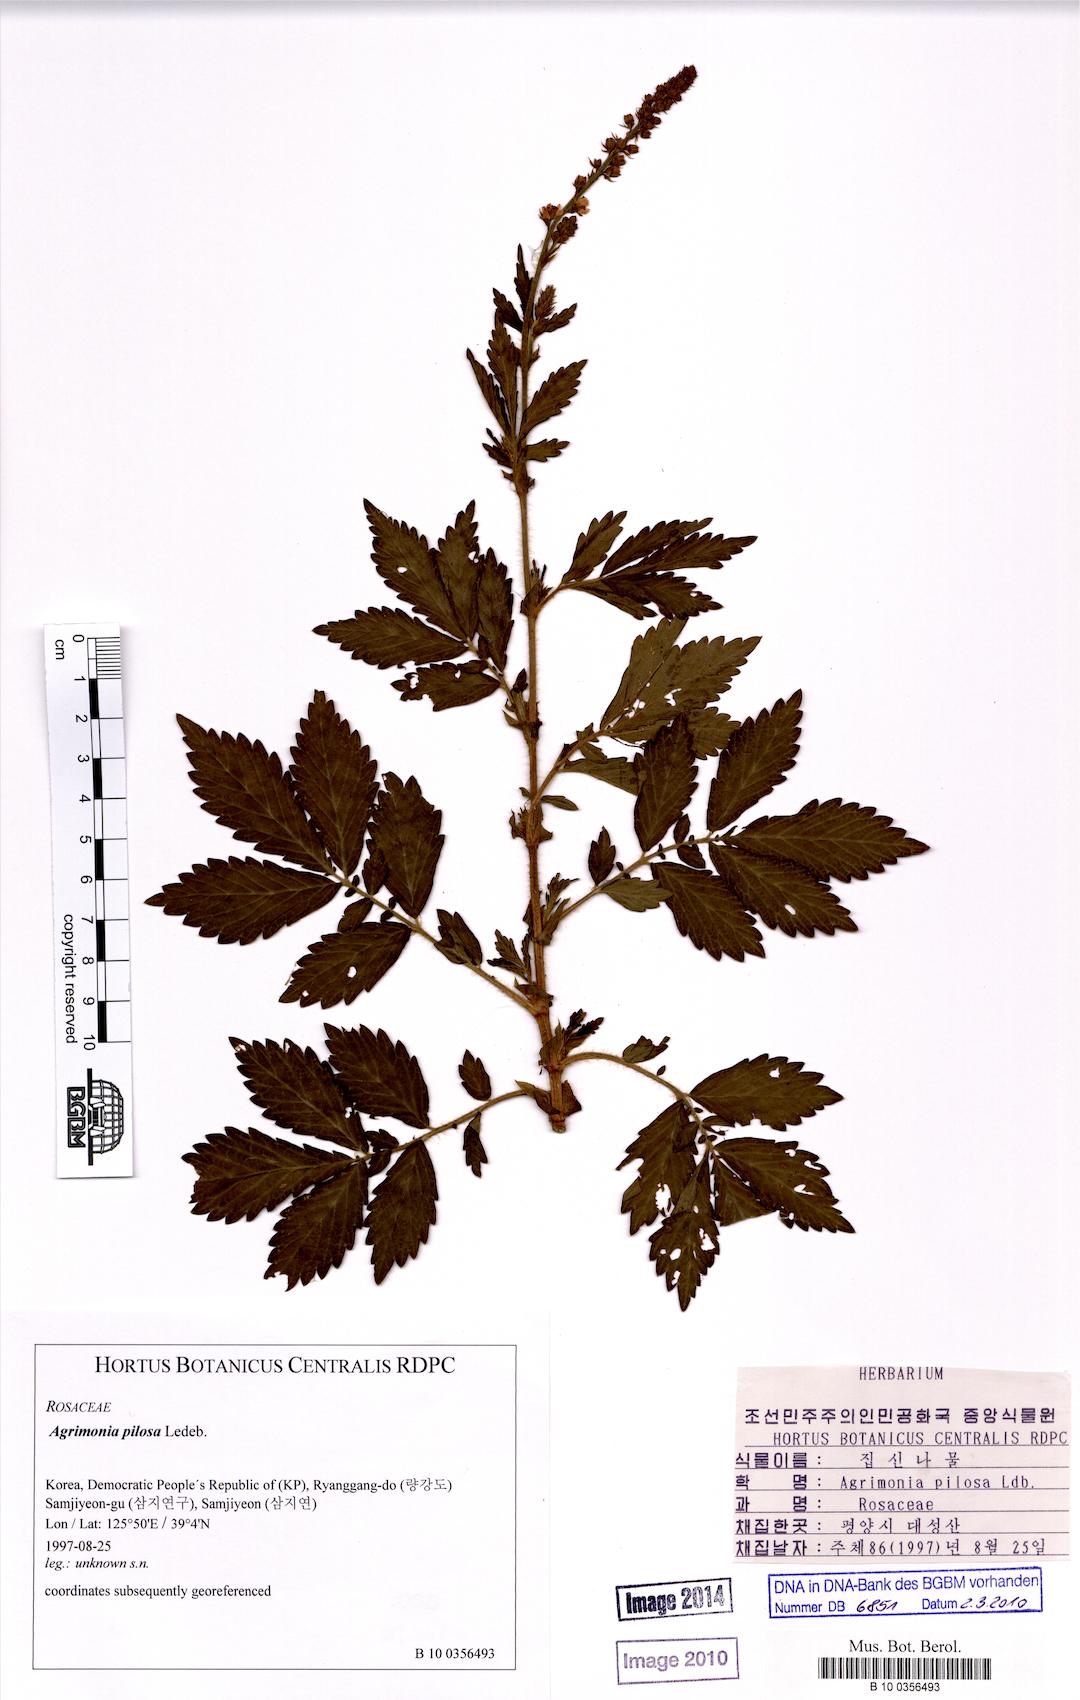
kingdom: Plantae
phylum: Tracheophyta
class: Magnoliopsida
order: Rosales
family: Rosaceae
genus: Agrimonia
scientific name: Agrimonia pilosa
